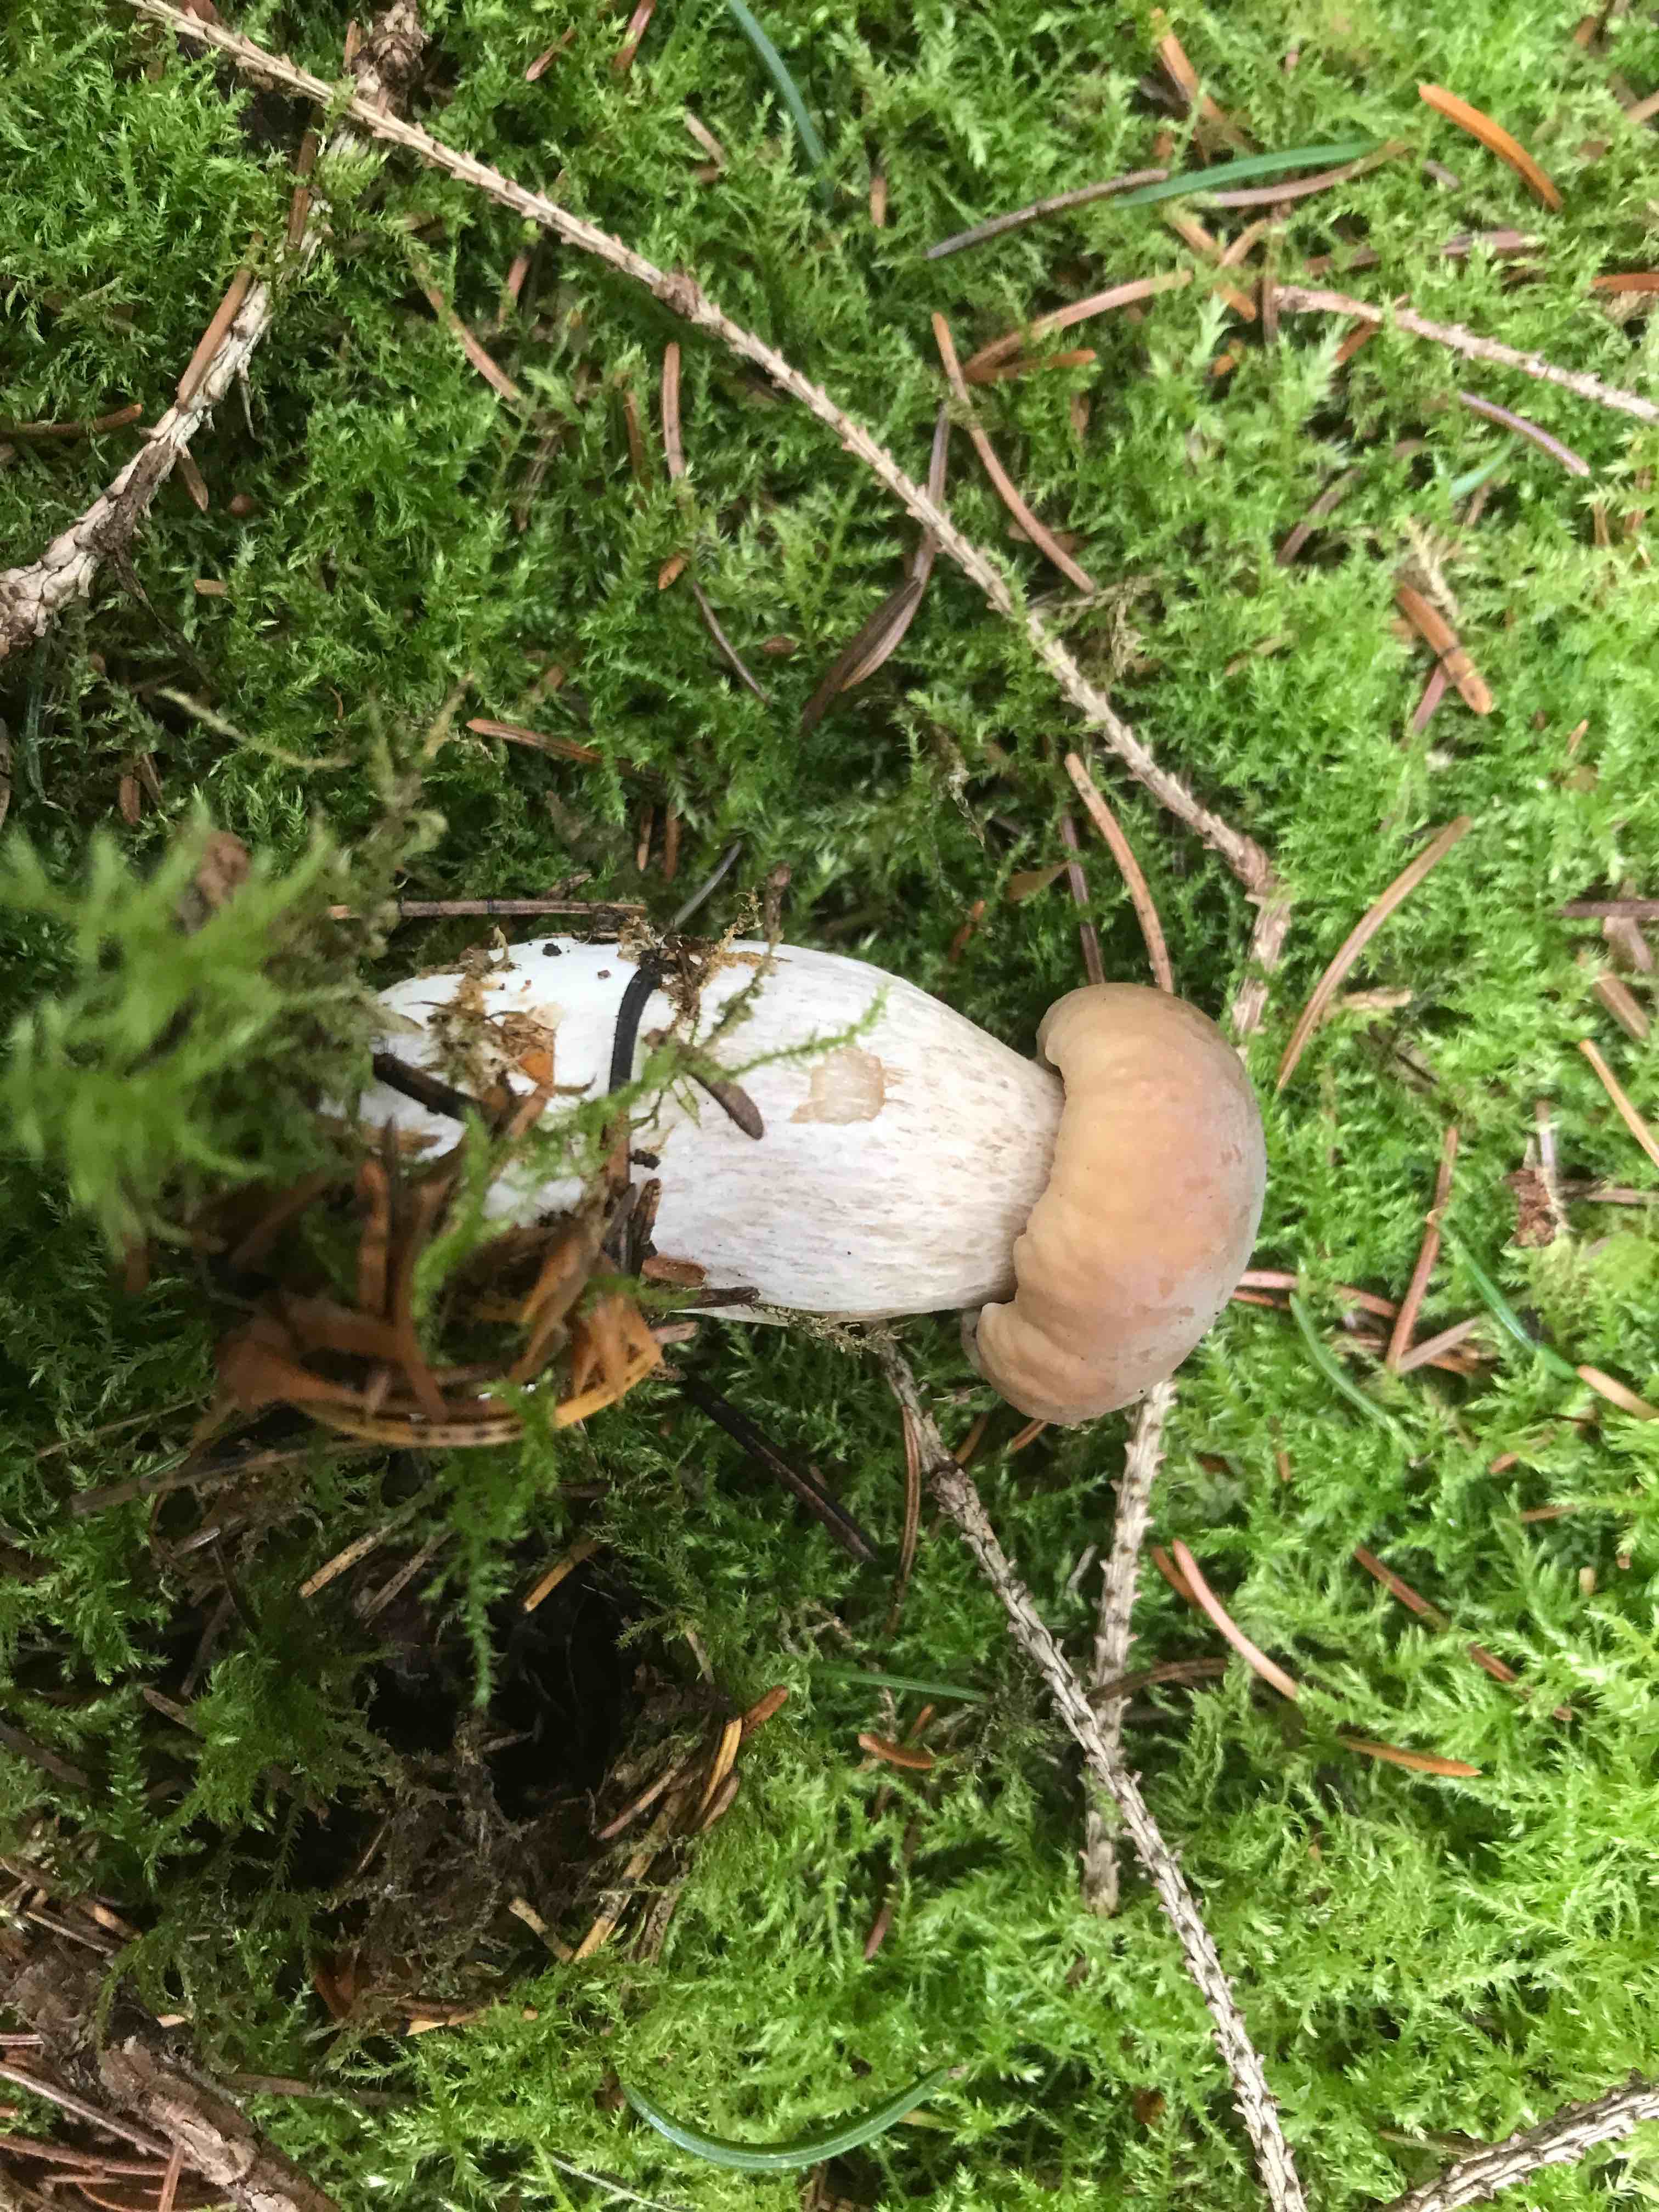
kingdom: Fungi
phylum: Basidiomycota
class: Agaricomycetes
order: Boletales
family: Boletaceae
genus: Boletus
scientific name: Boletus edulis
